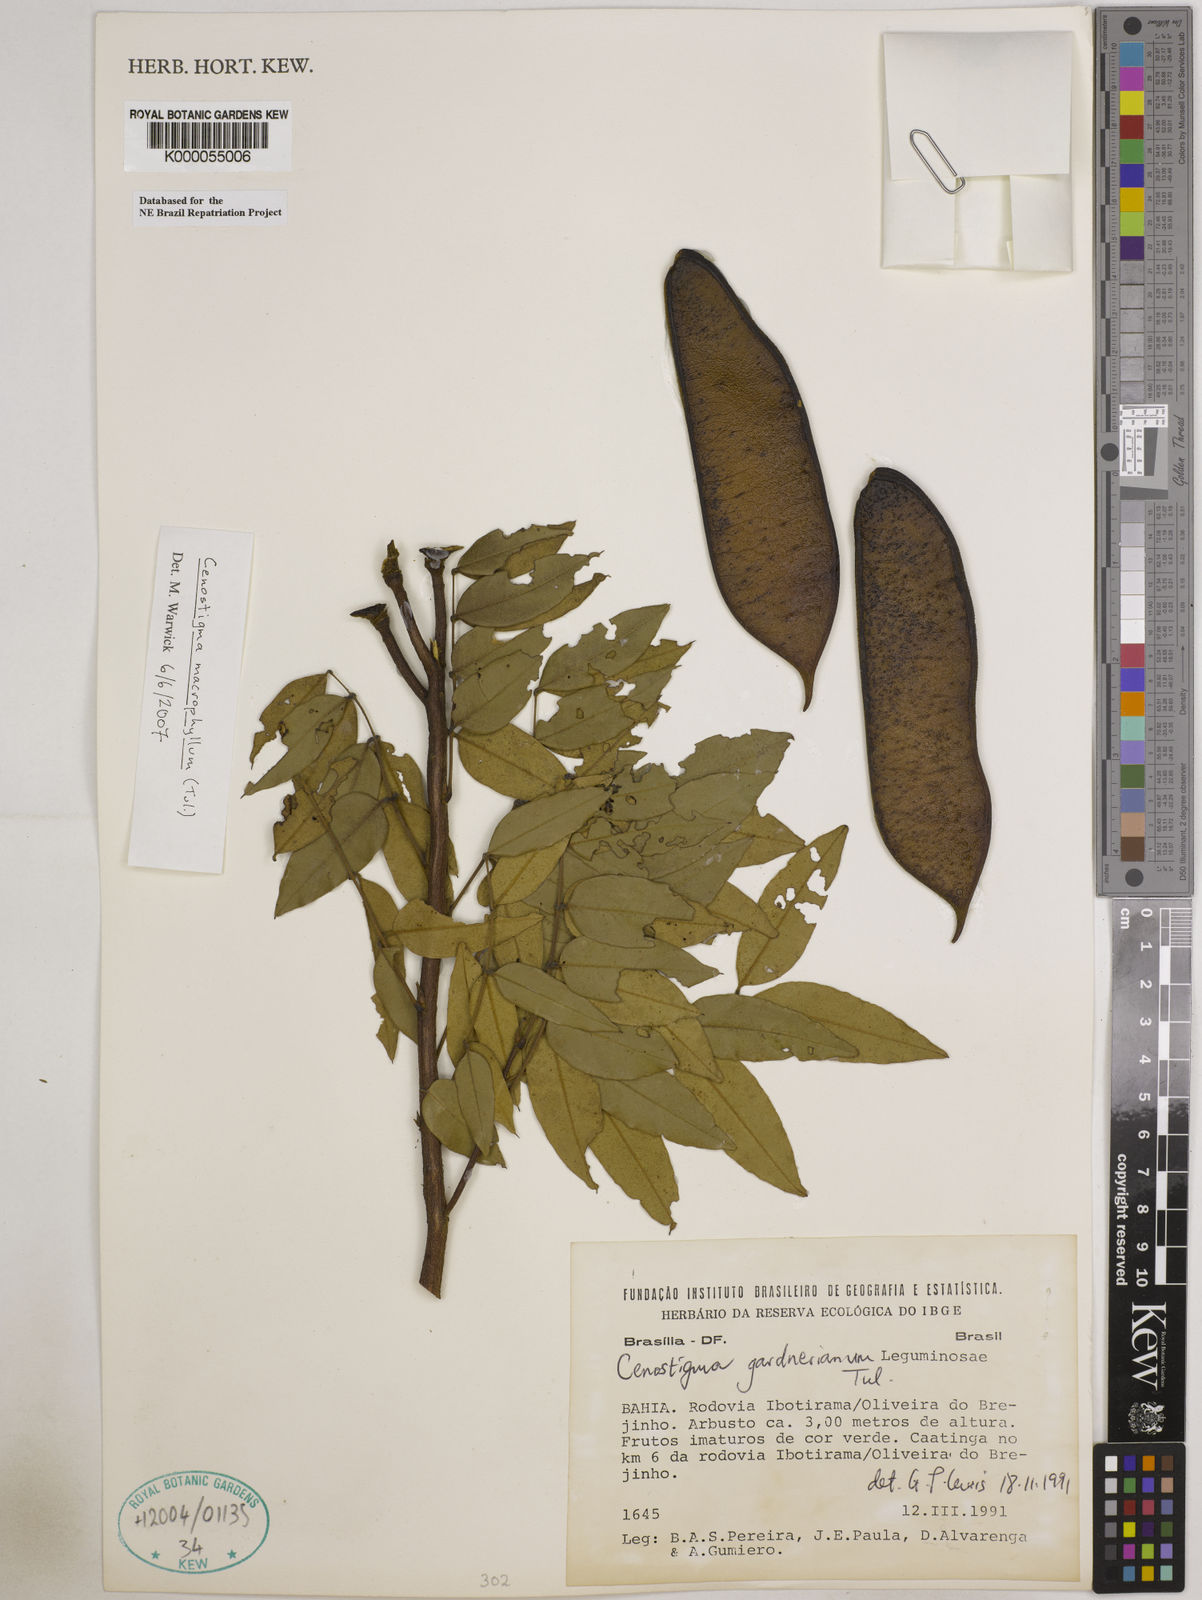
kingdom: Plantae
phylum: Tracheophyta
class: Magnoliopsida
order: Fabales
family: Fabaceae
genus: Cenostigma
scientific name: Cenostigma macrophyllum
